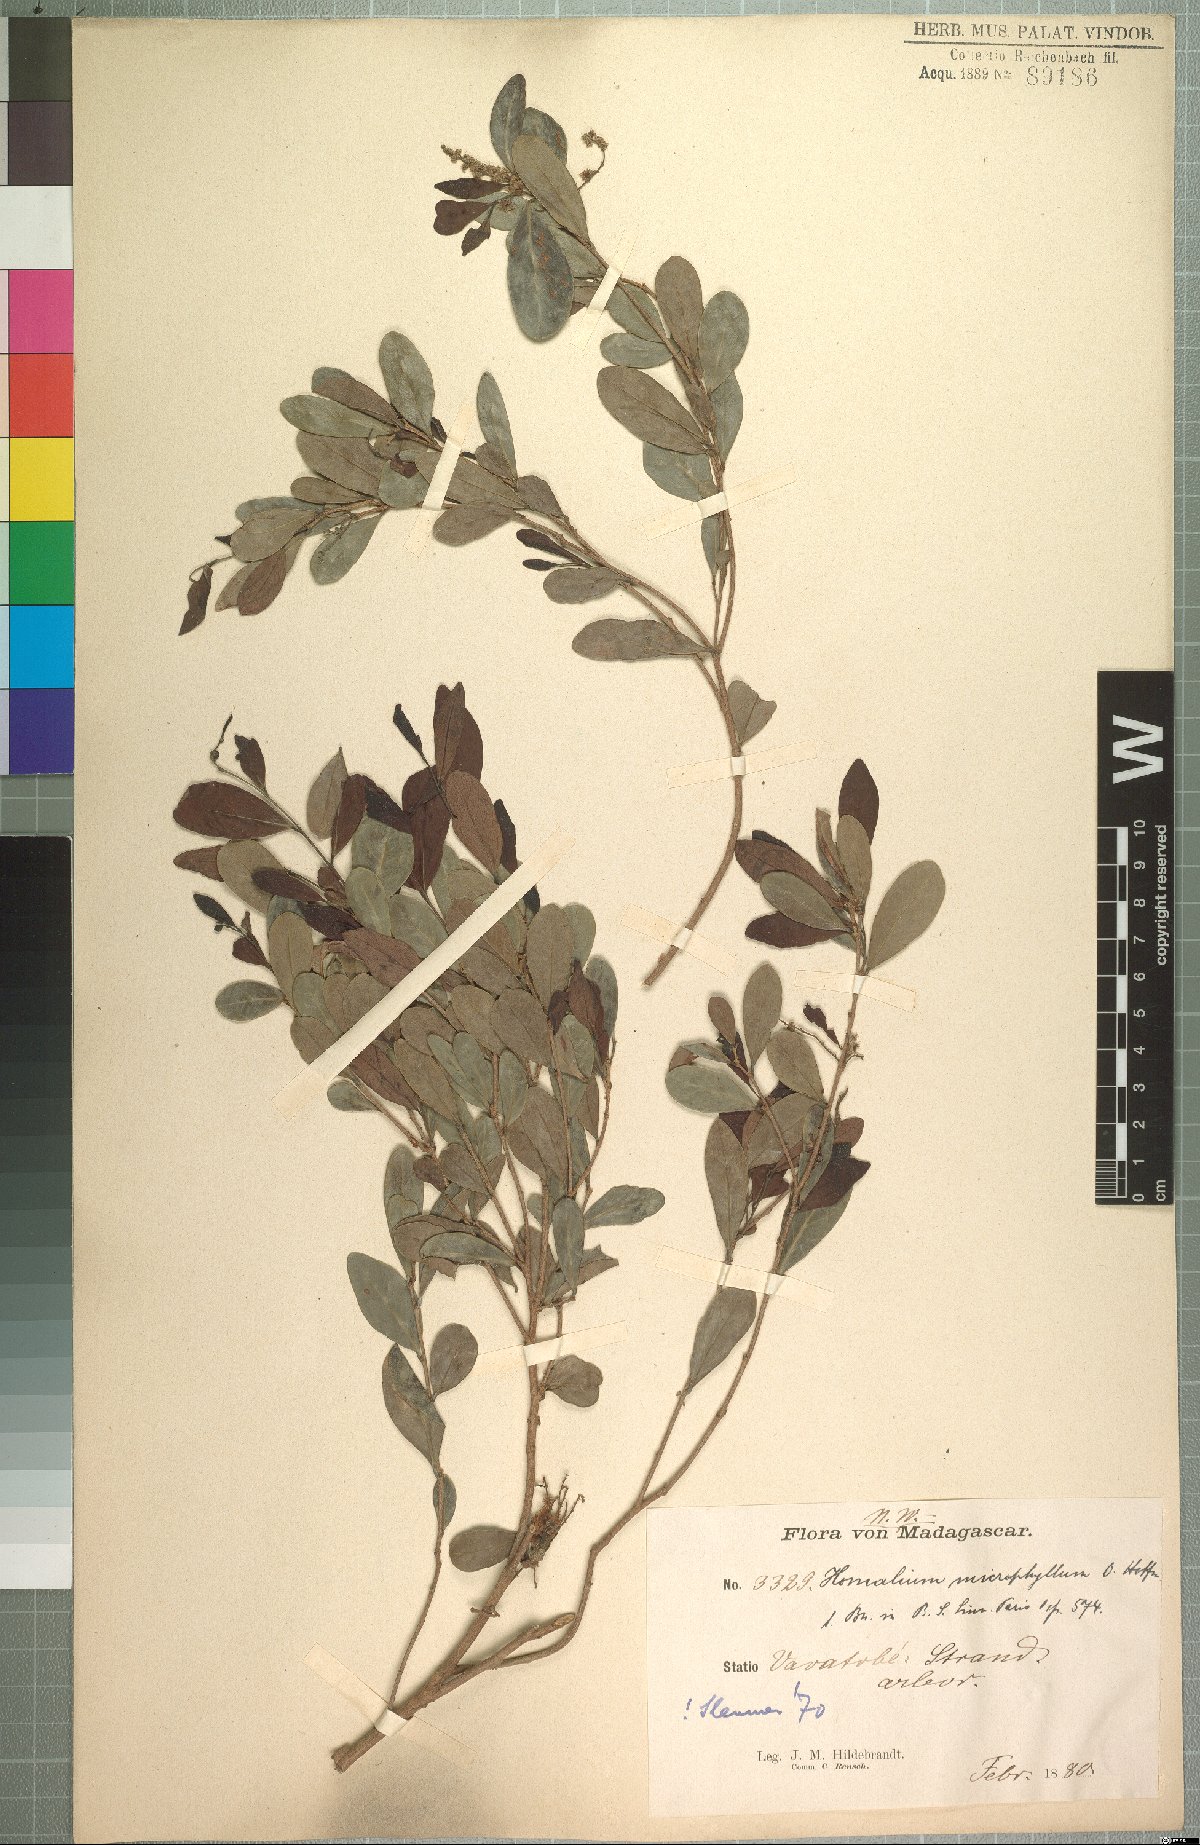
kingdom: Plantae
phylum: Tracheophyta
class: Magnoliopsida
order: Malpighiales
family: Salicaceae
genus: Homalium
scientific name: Homalium microphyllum
